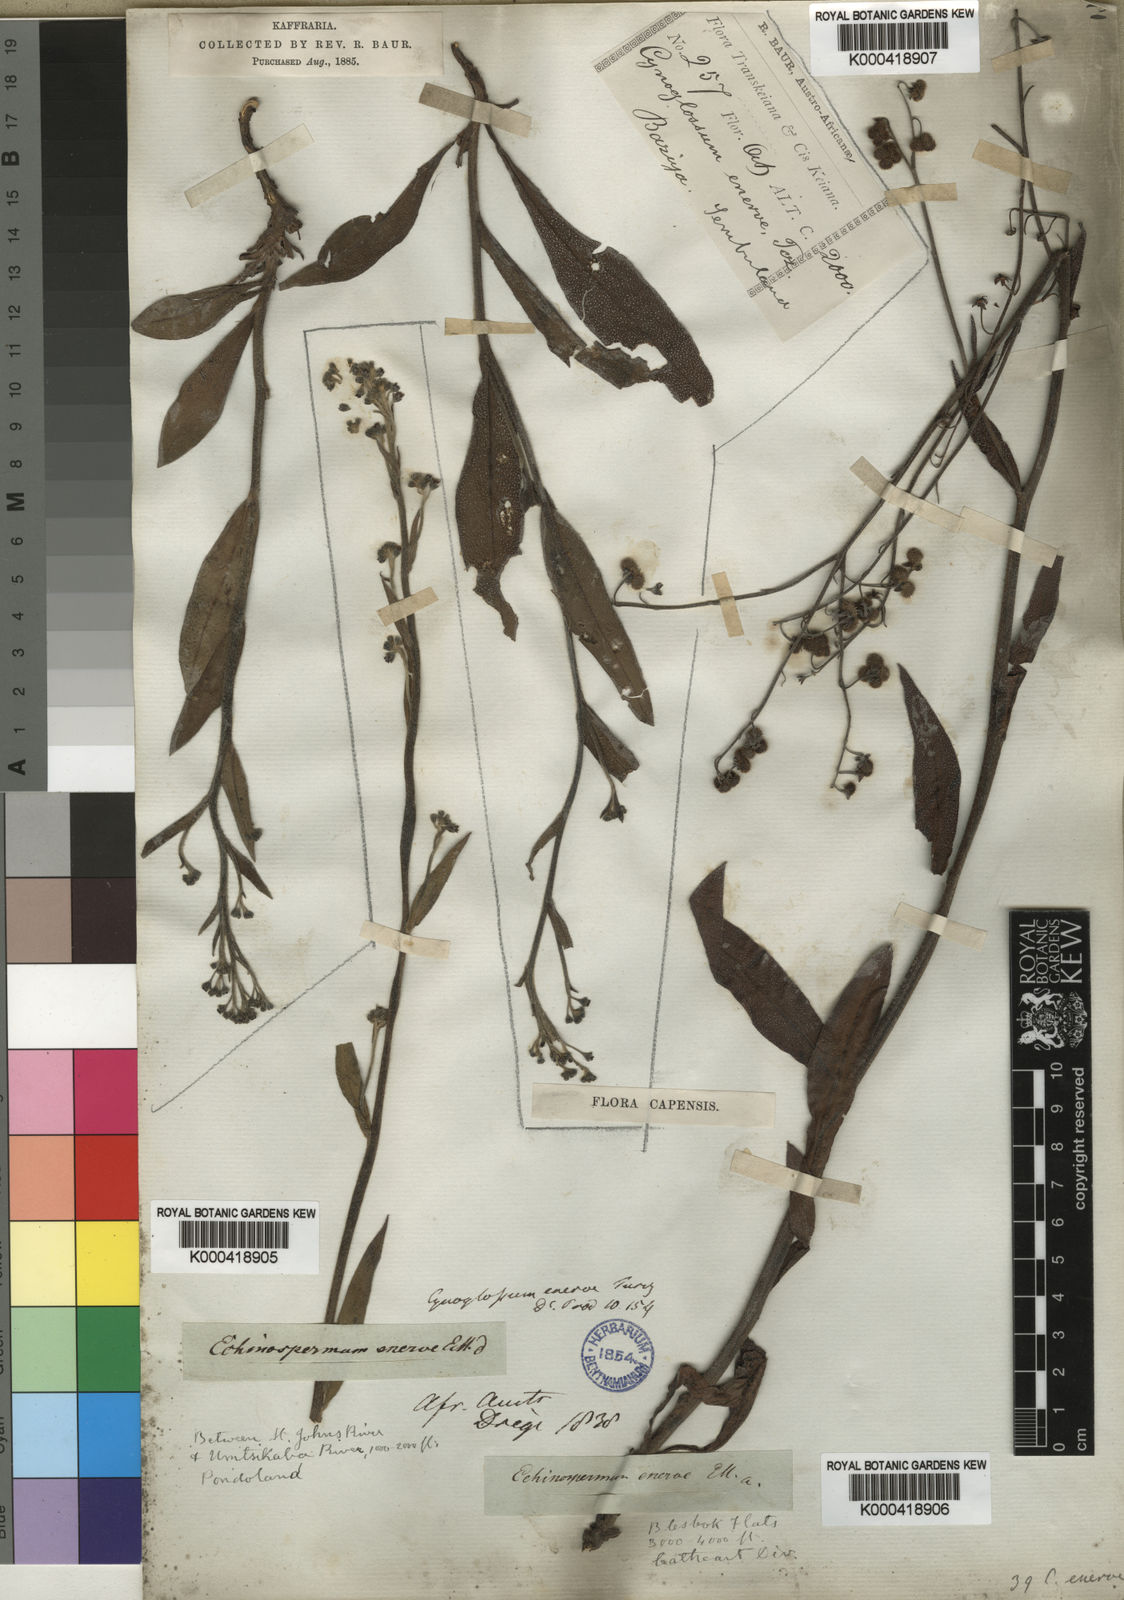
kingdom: Plantae
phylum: Tracheophyta
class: Magnoliopsida
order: Boraginales
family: Boraginaceae
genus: Cynoglossum
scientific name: Cynoglossum hispidum
